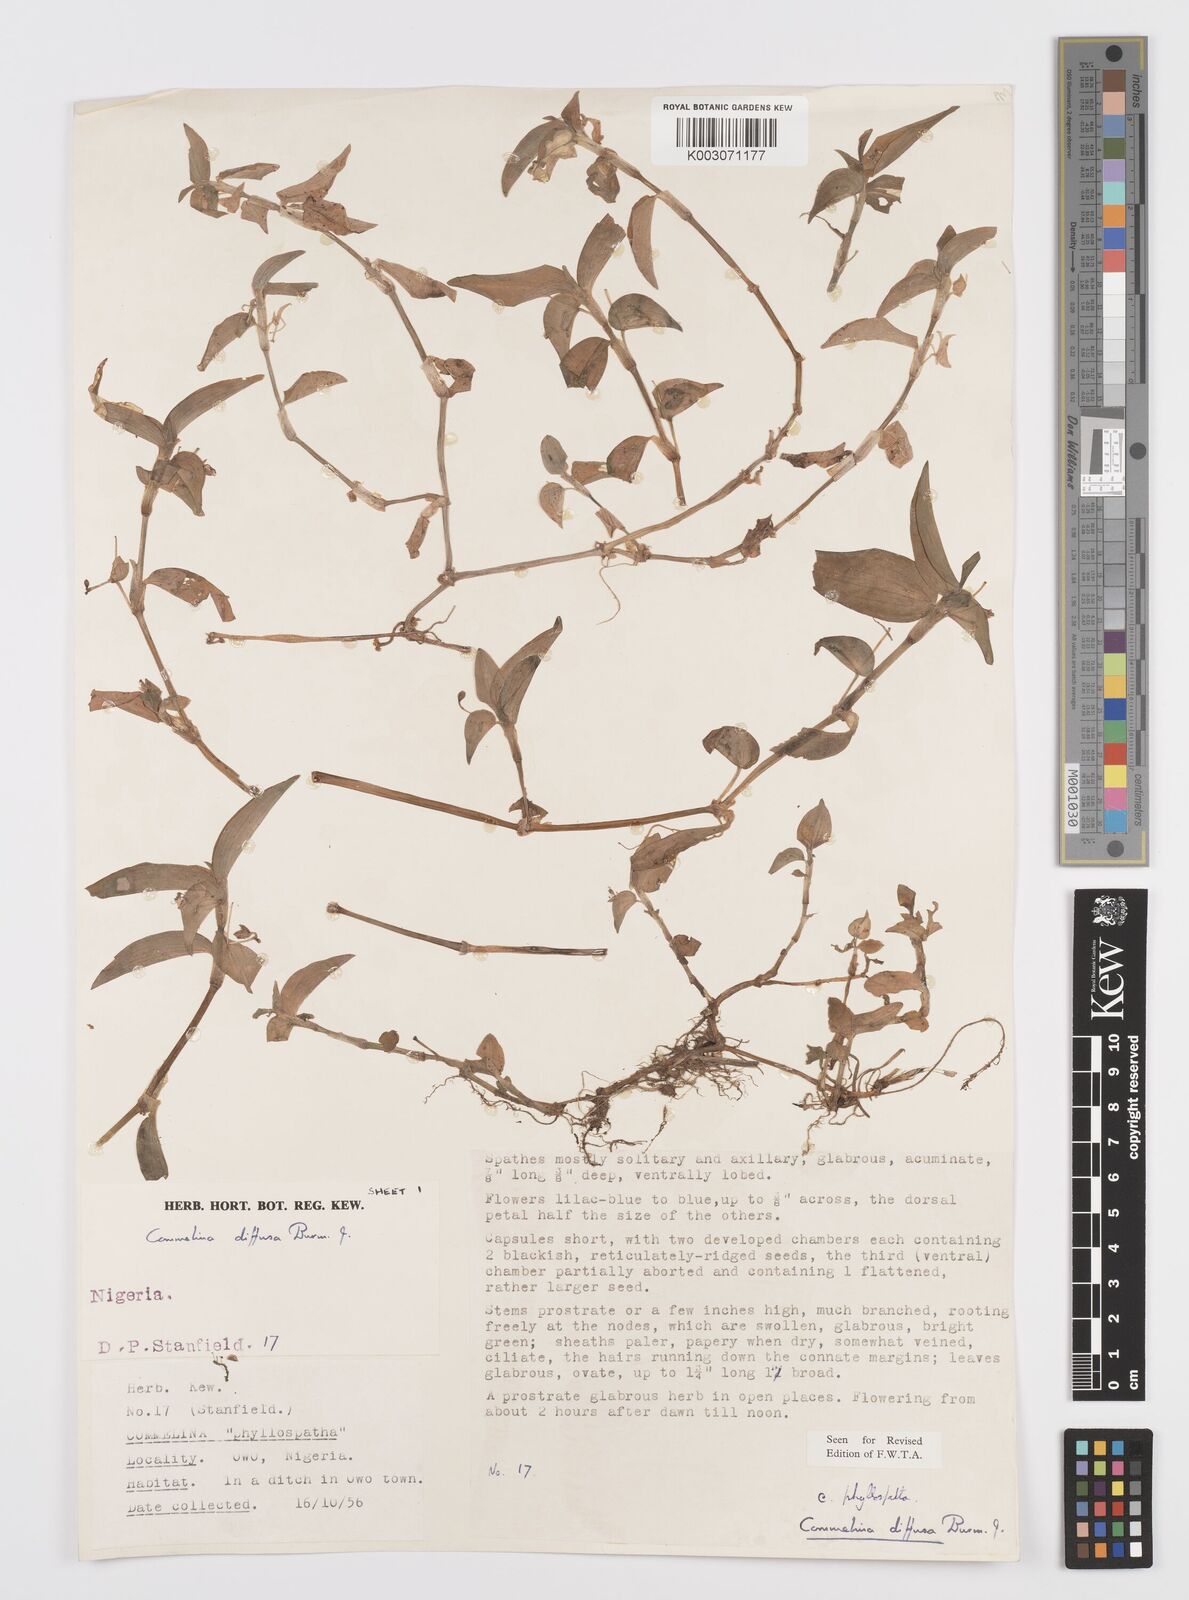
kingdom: Plantae
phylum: Tracheophyta
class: Liliopsida
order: Commelinales
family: Commelinaceae
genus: Commelina
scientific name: Commelina diffusa
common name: Climbing dayflower
